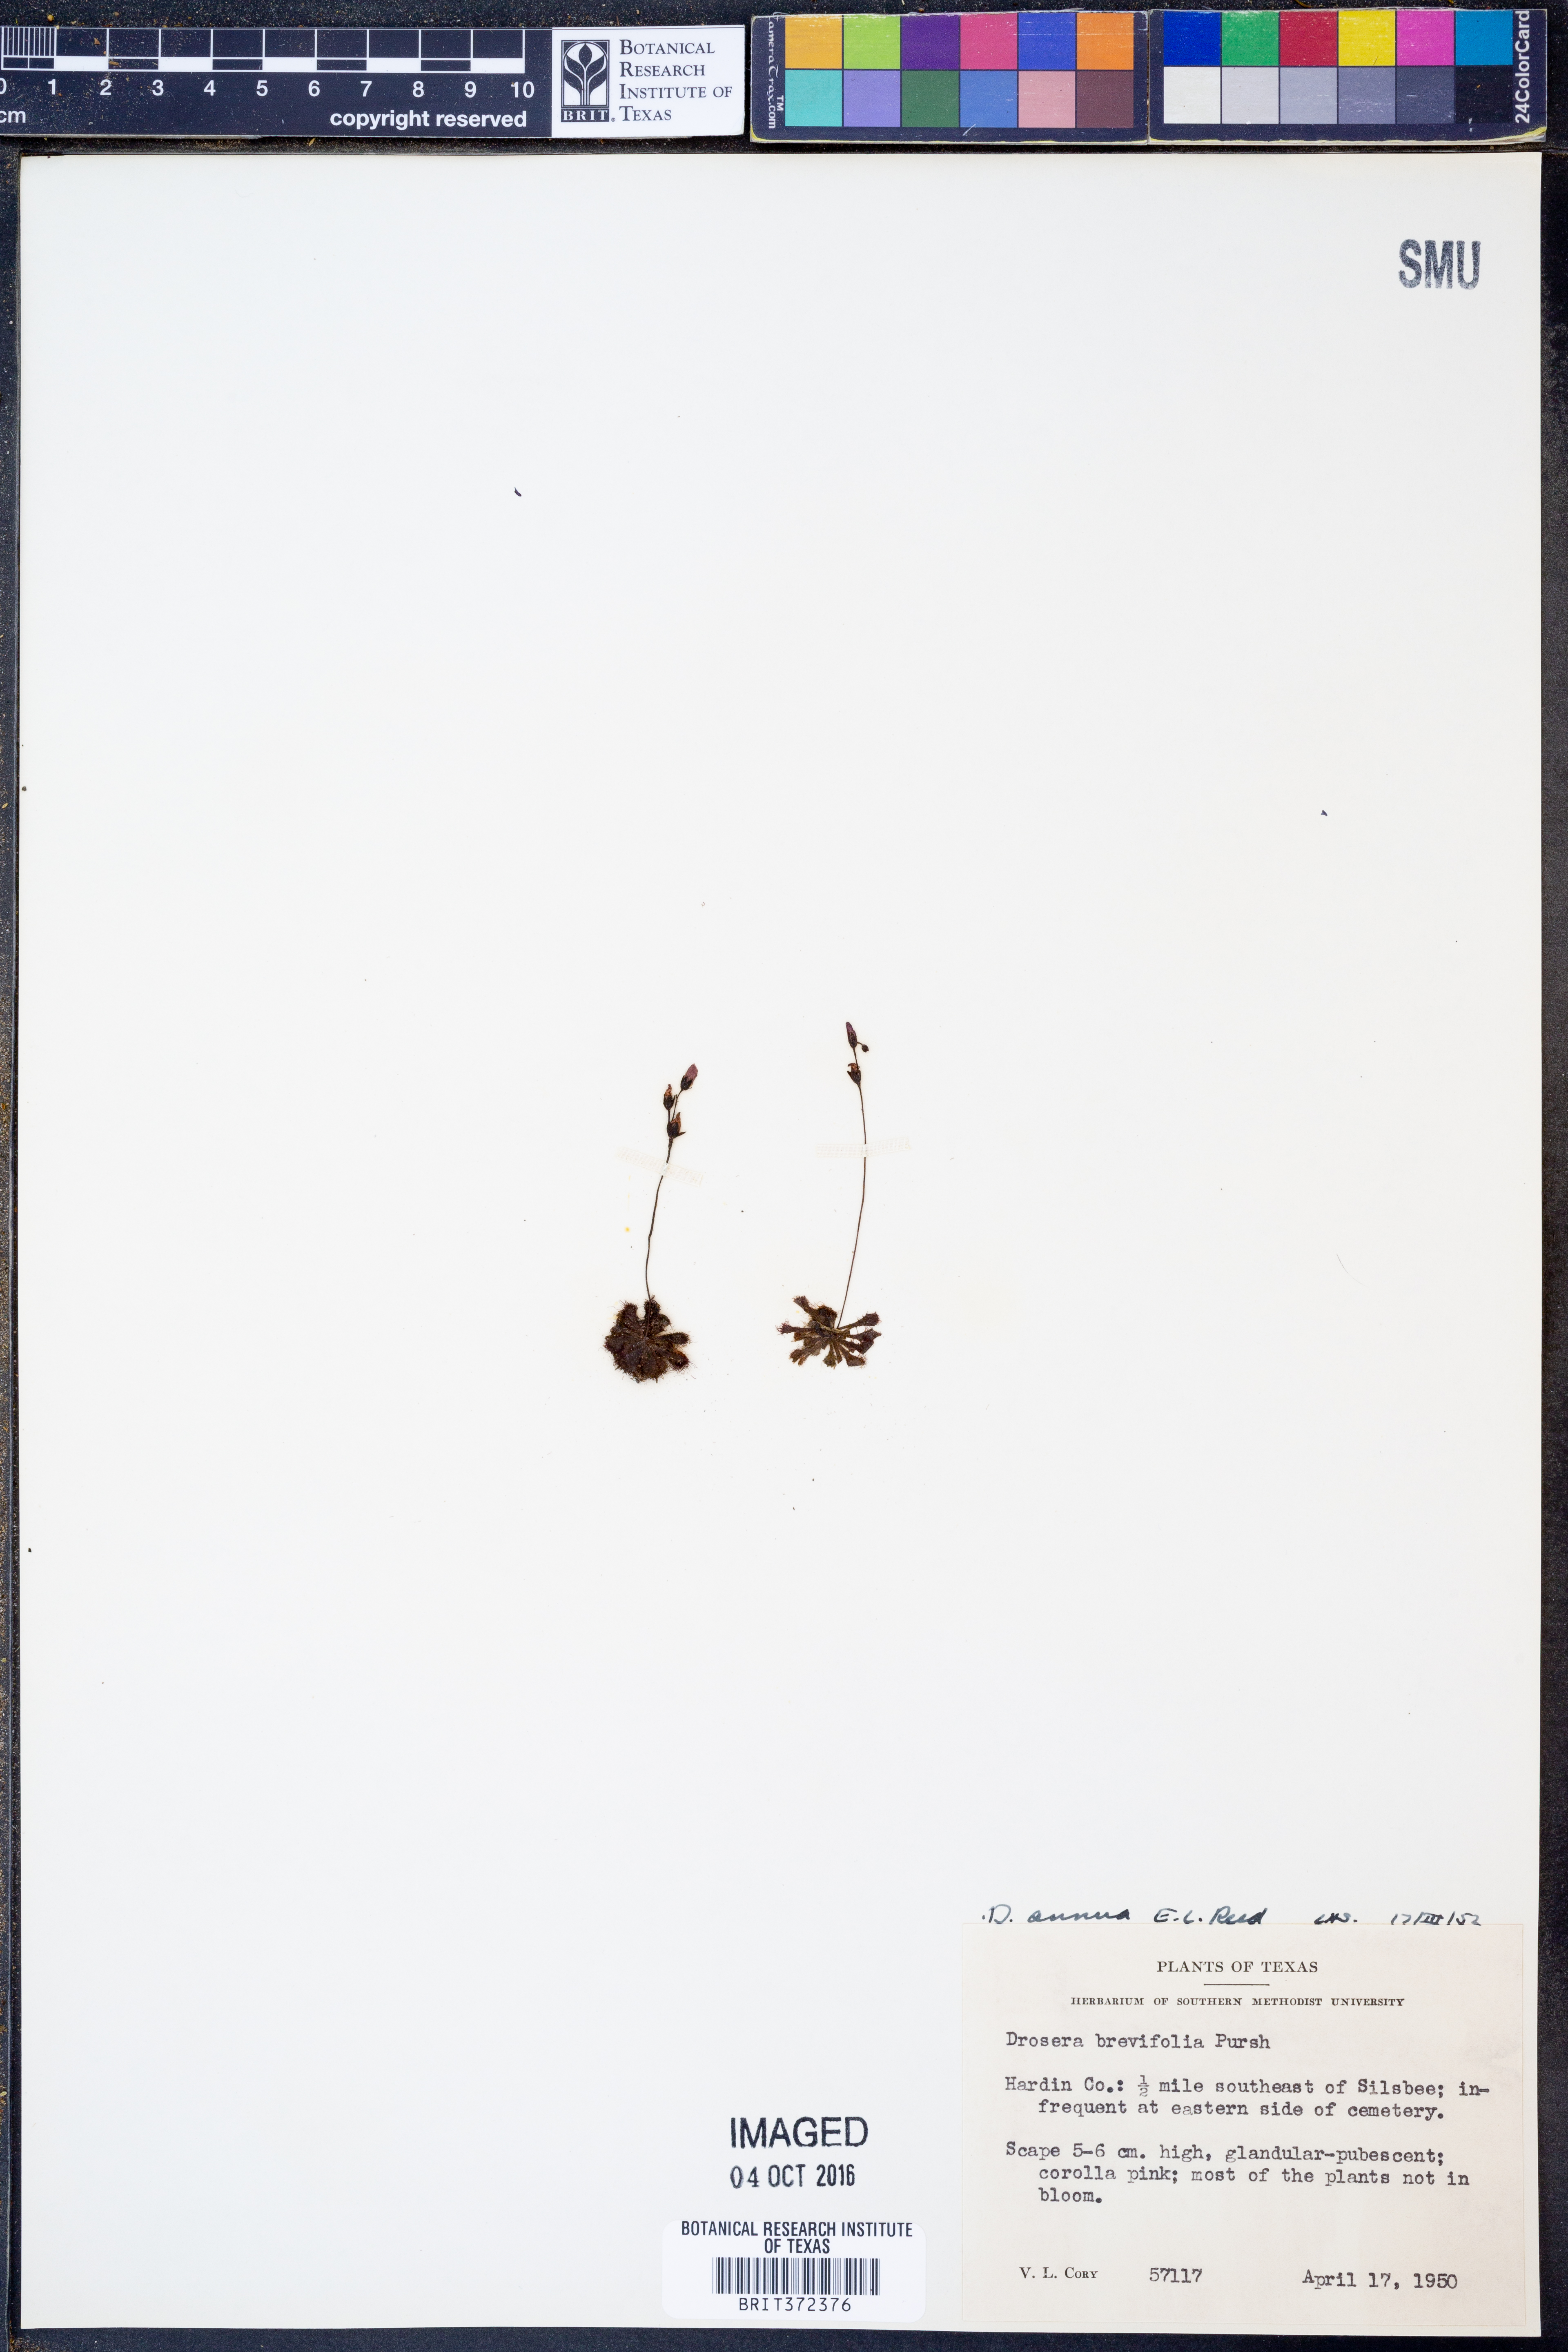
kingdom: Plantae
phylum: Tracheophyta
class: Magnoliopsida
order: Caryophyllales
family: Droseraceae
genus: Drosera
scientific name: Drosera brevifolia
